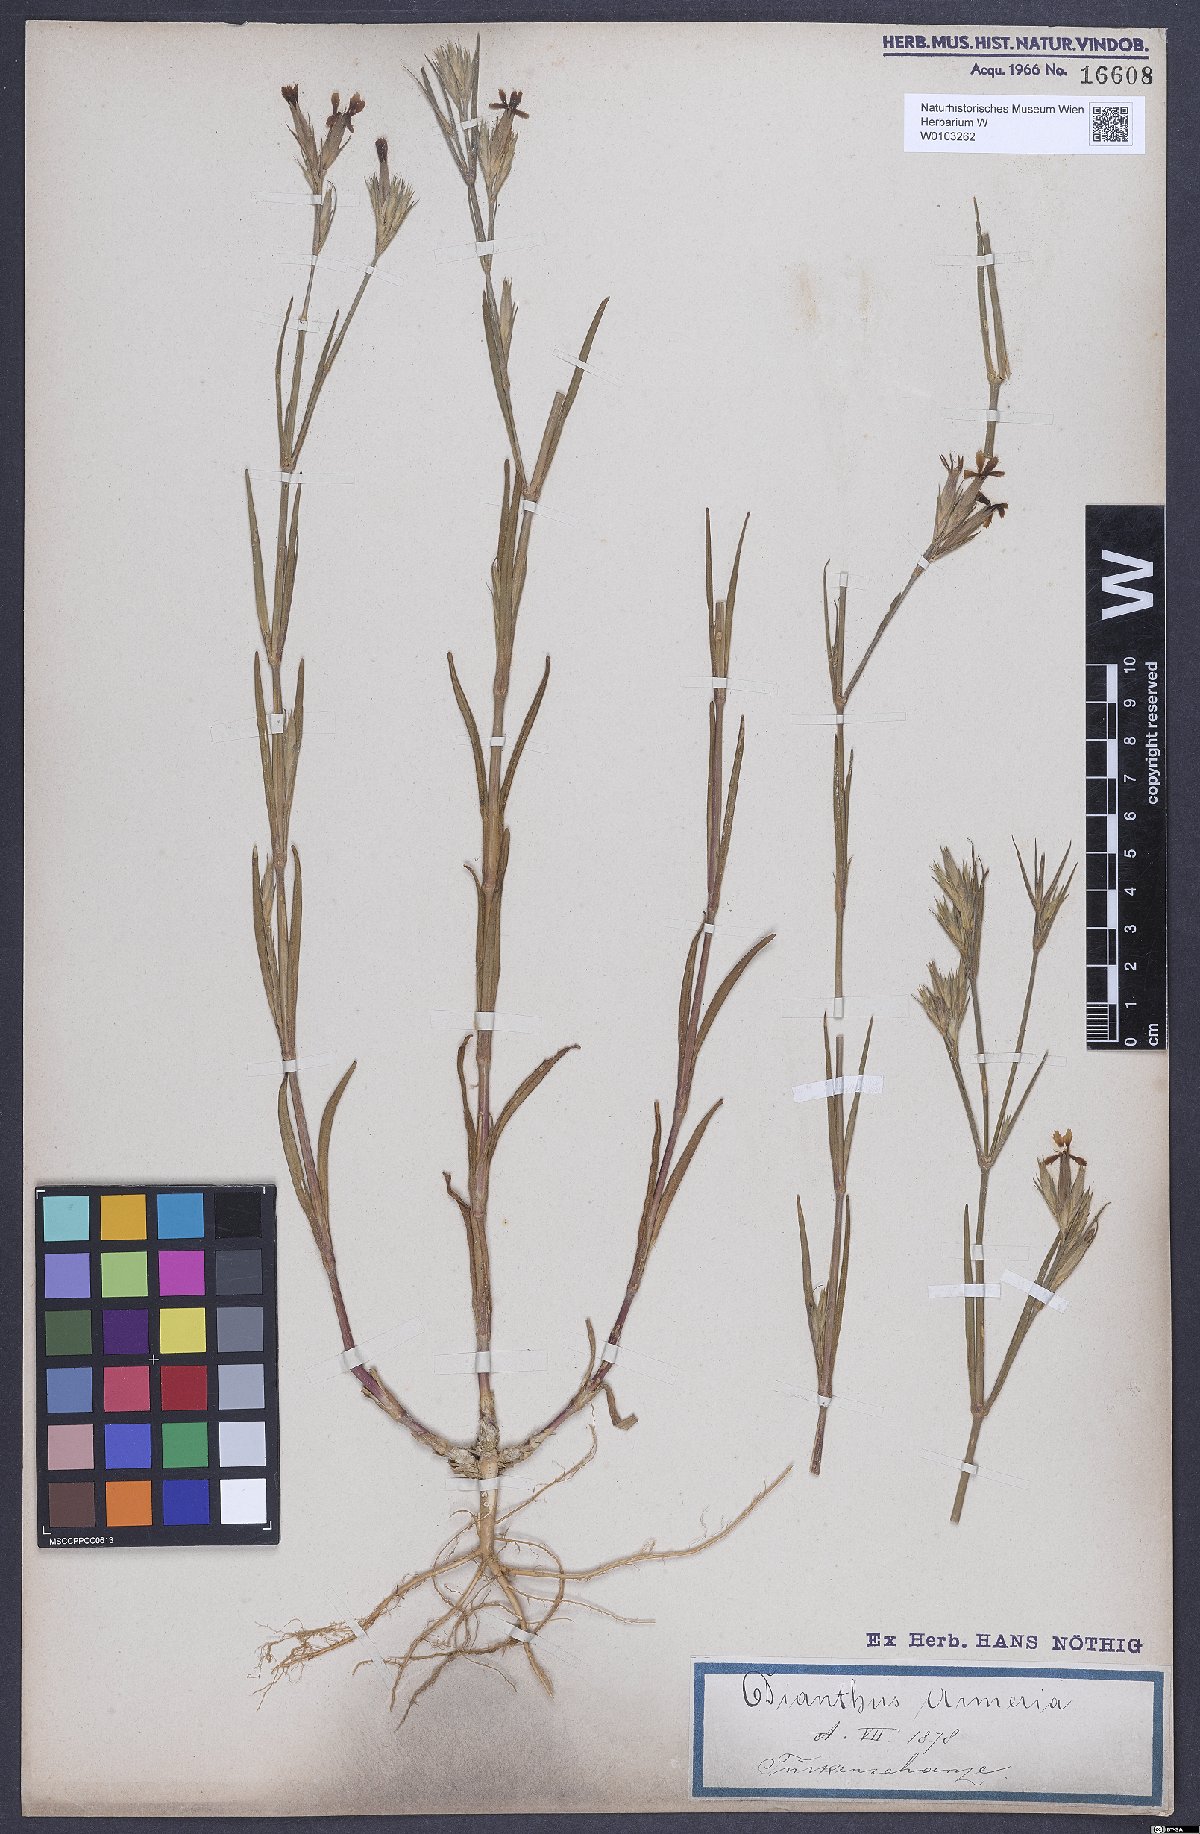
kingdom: Plantae
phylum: Tracheophyta
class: Magnoliopsida
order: Caryophyllales
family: Caryophyllaceae
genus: Dianthus
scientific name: Dianthus armeria
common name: Deptford pink
